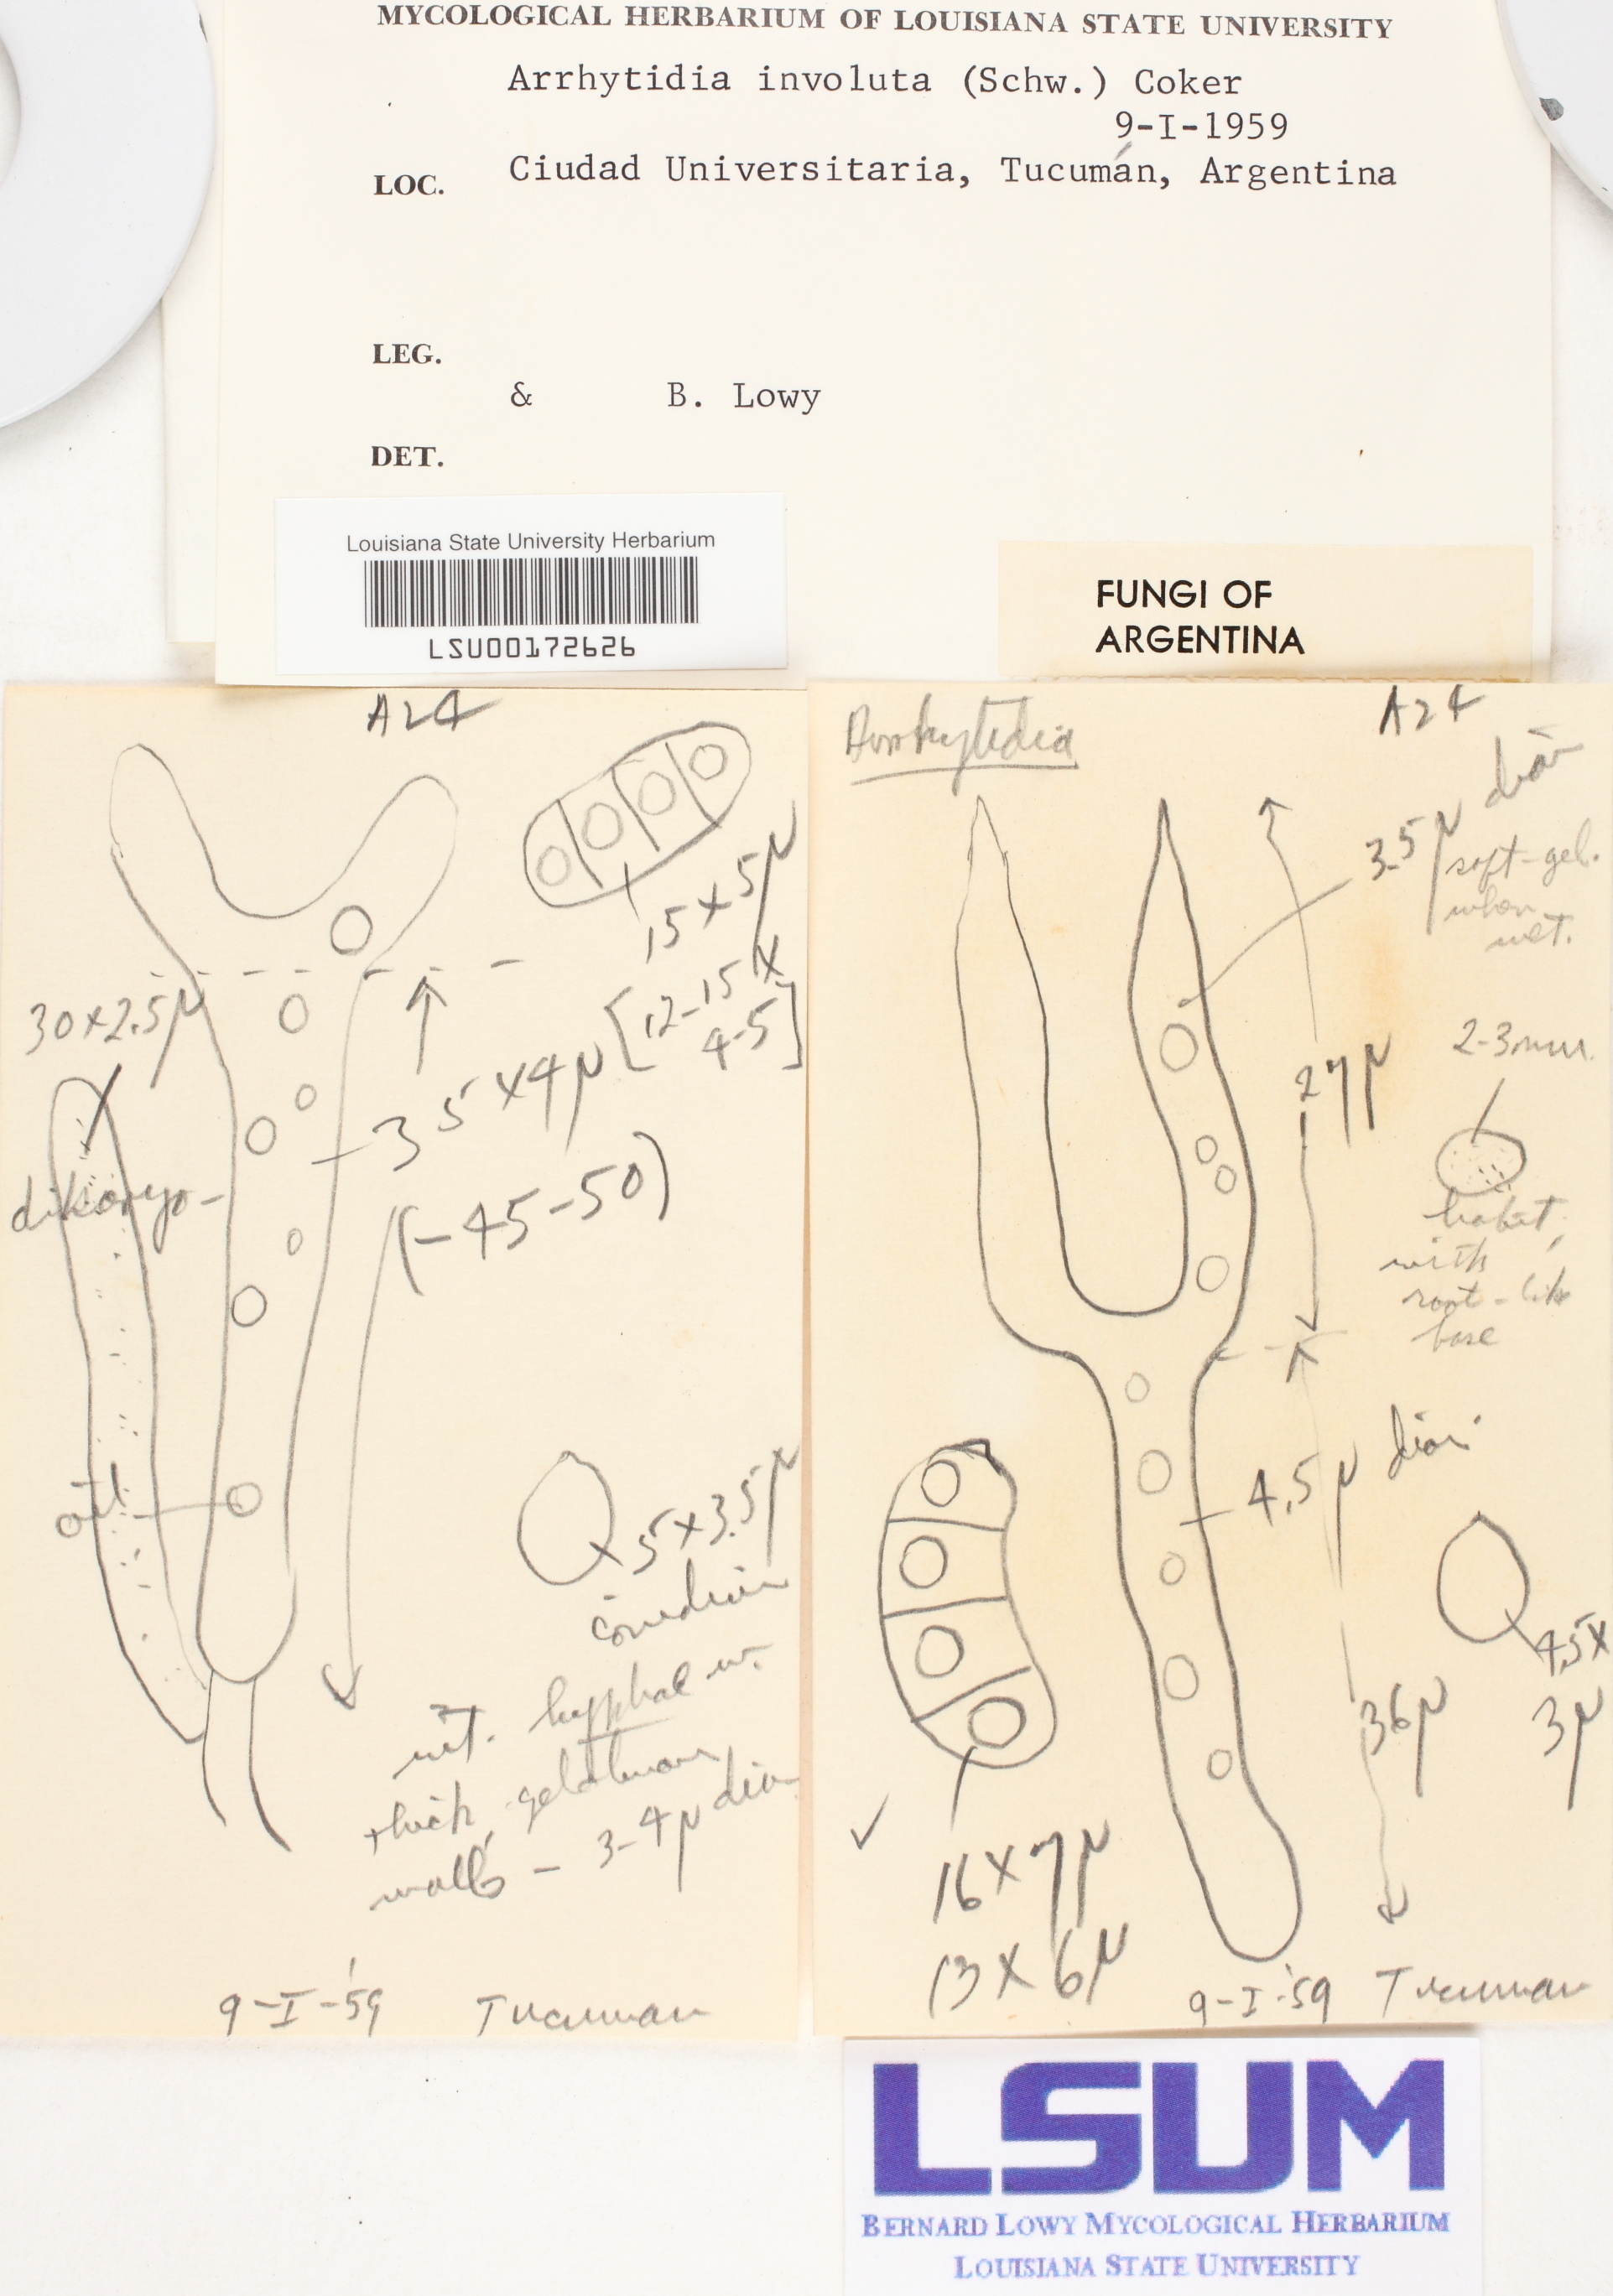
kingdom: Fungi
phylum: Basidiomycota
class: Dacrymycetes
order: Dacrymycetales
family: Dacrymycetaceae
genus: Dacrymyces
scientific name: Dacrymyces involutus
